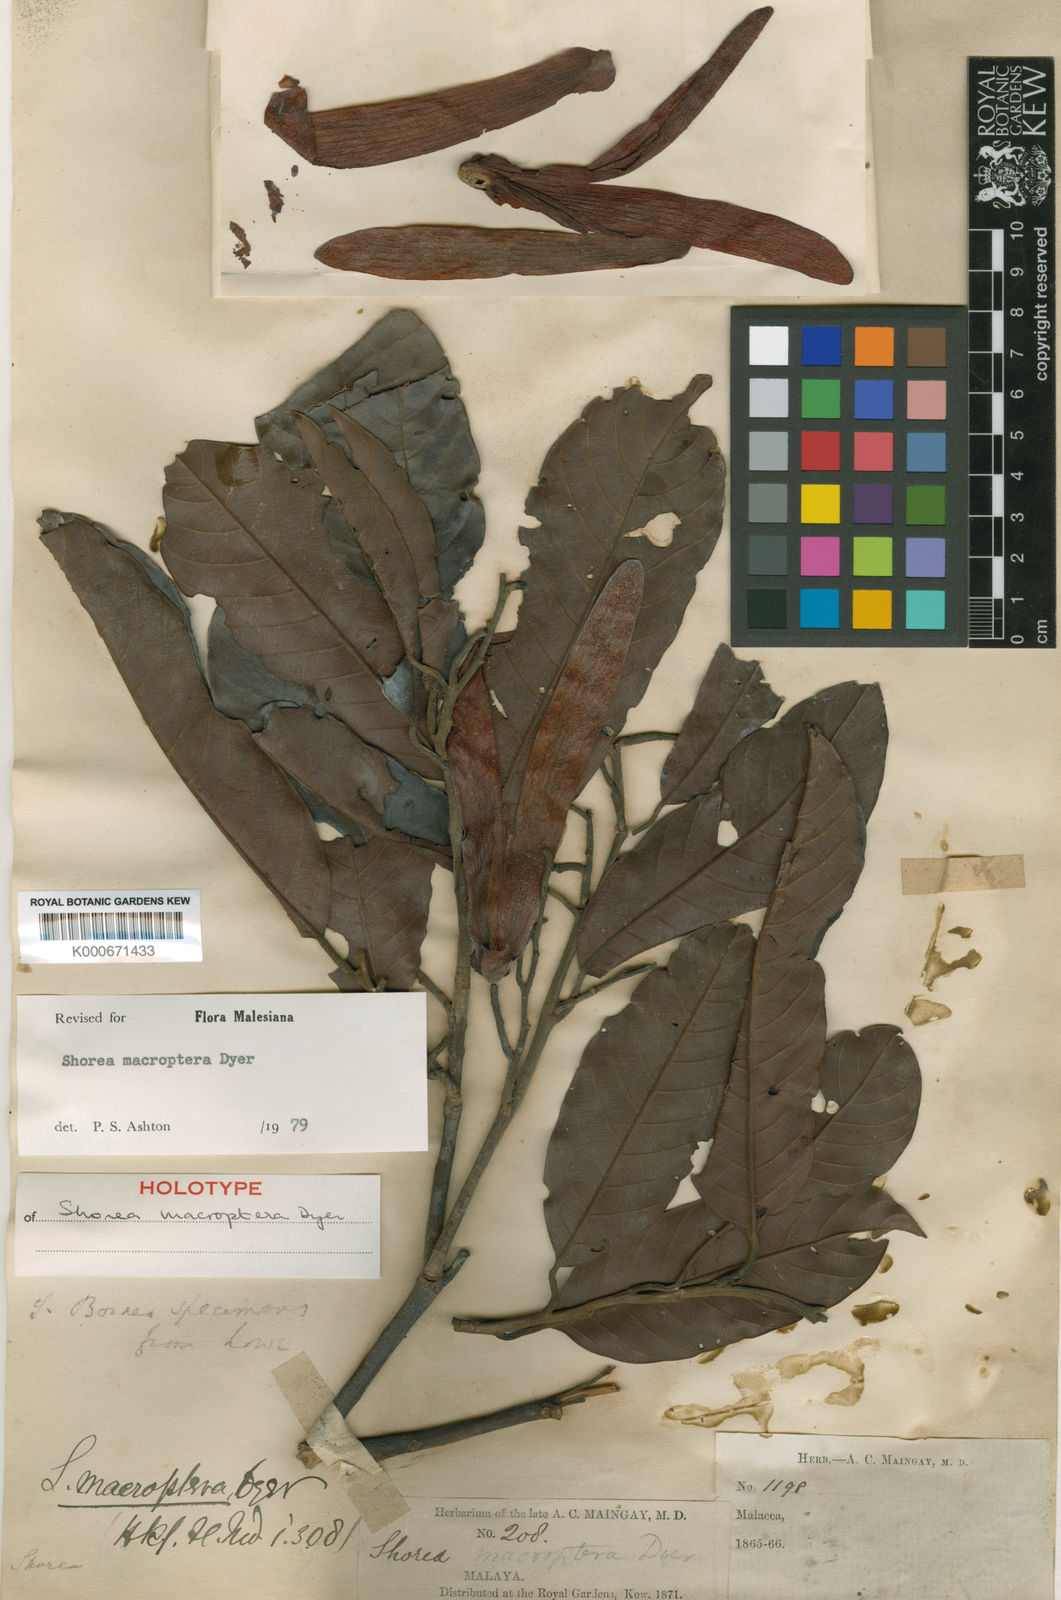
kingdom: Plantae
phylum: Tracheophyta
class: Magnoliopsida
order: Malvales
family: Dipterocarpaceae
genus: Shorea
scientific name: Shorea macroptera
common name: Light red meranti
